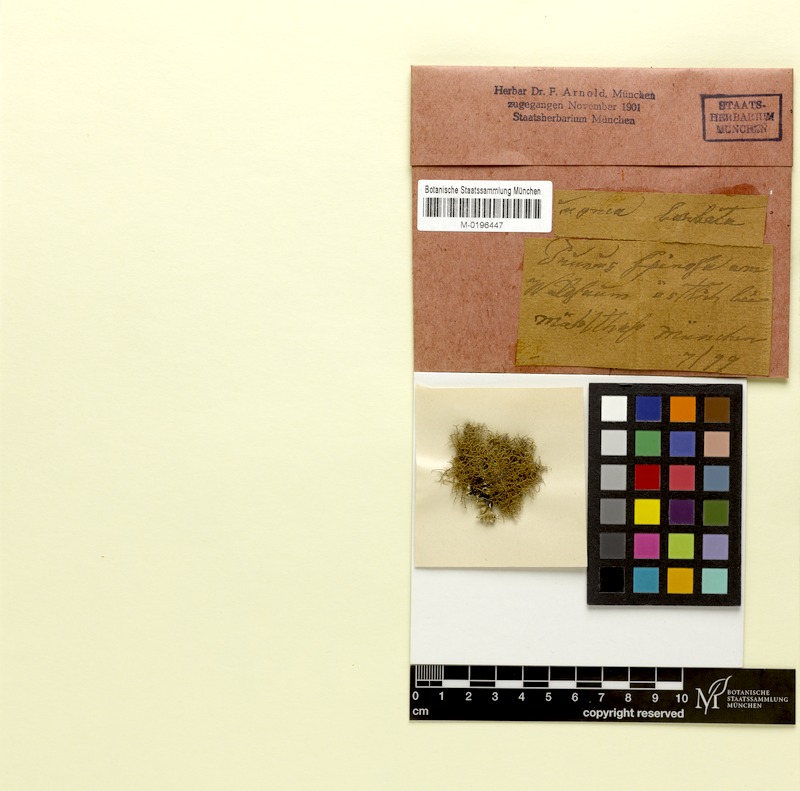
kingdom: Fungi
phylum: Ascomycota
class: Lecanoromycetes
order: Lecanorales
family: Parmeliaceae
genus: Usnea
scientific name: Usnea barbata
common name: Old man's beard lichen
